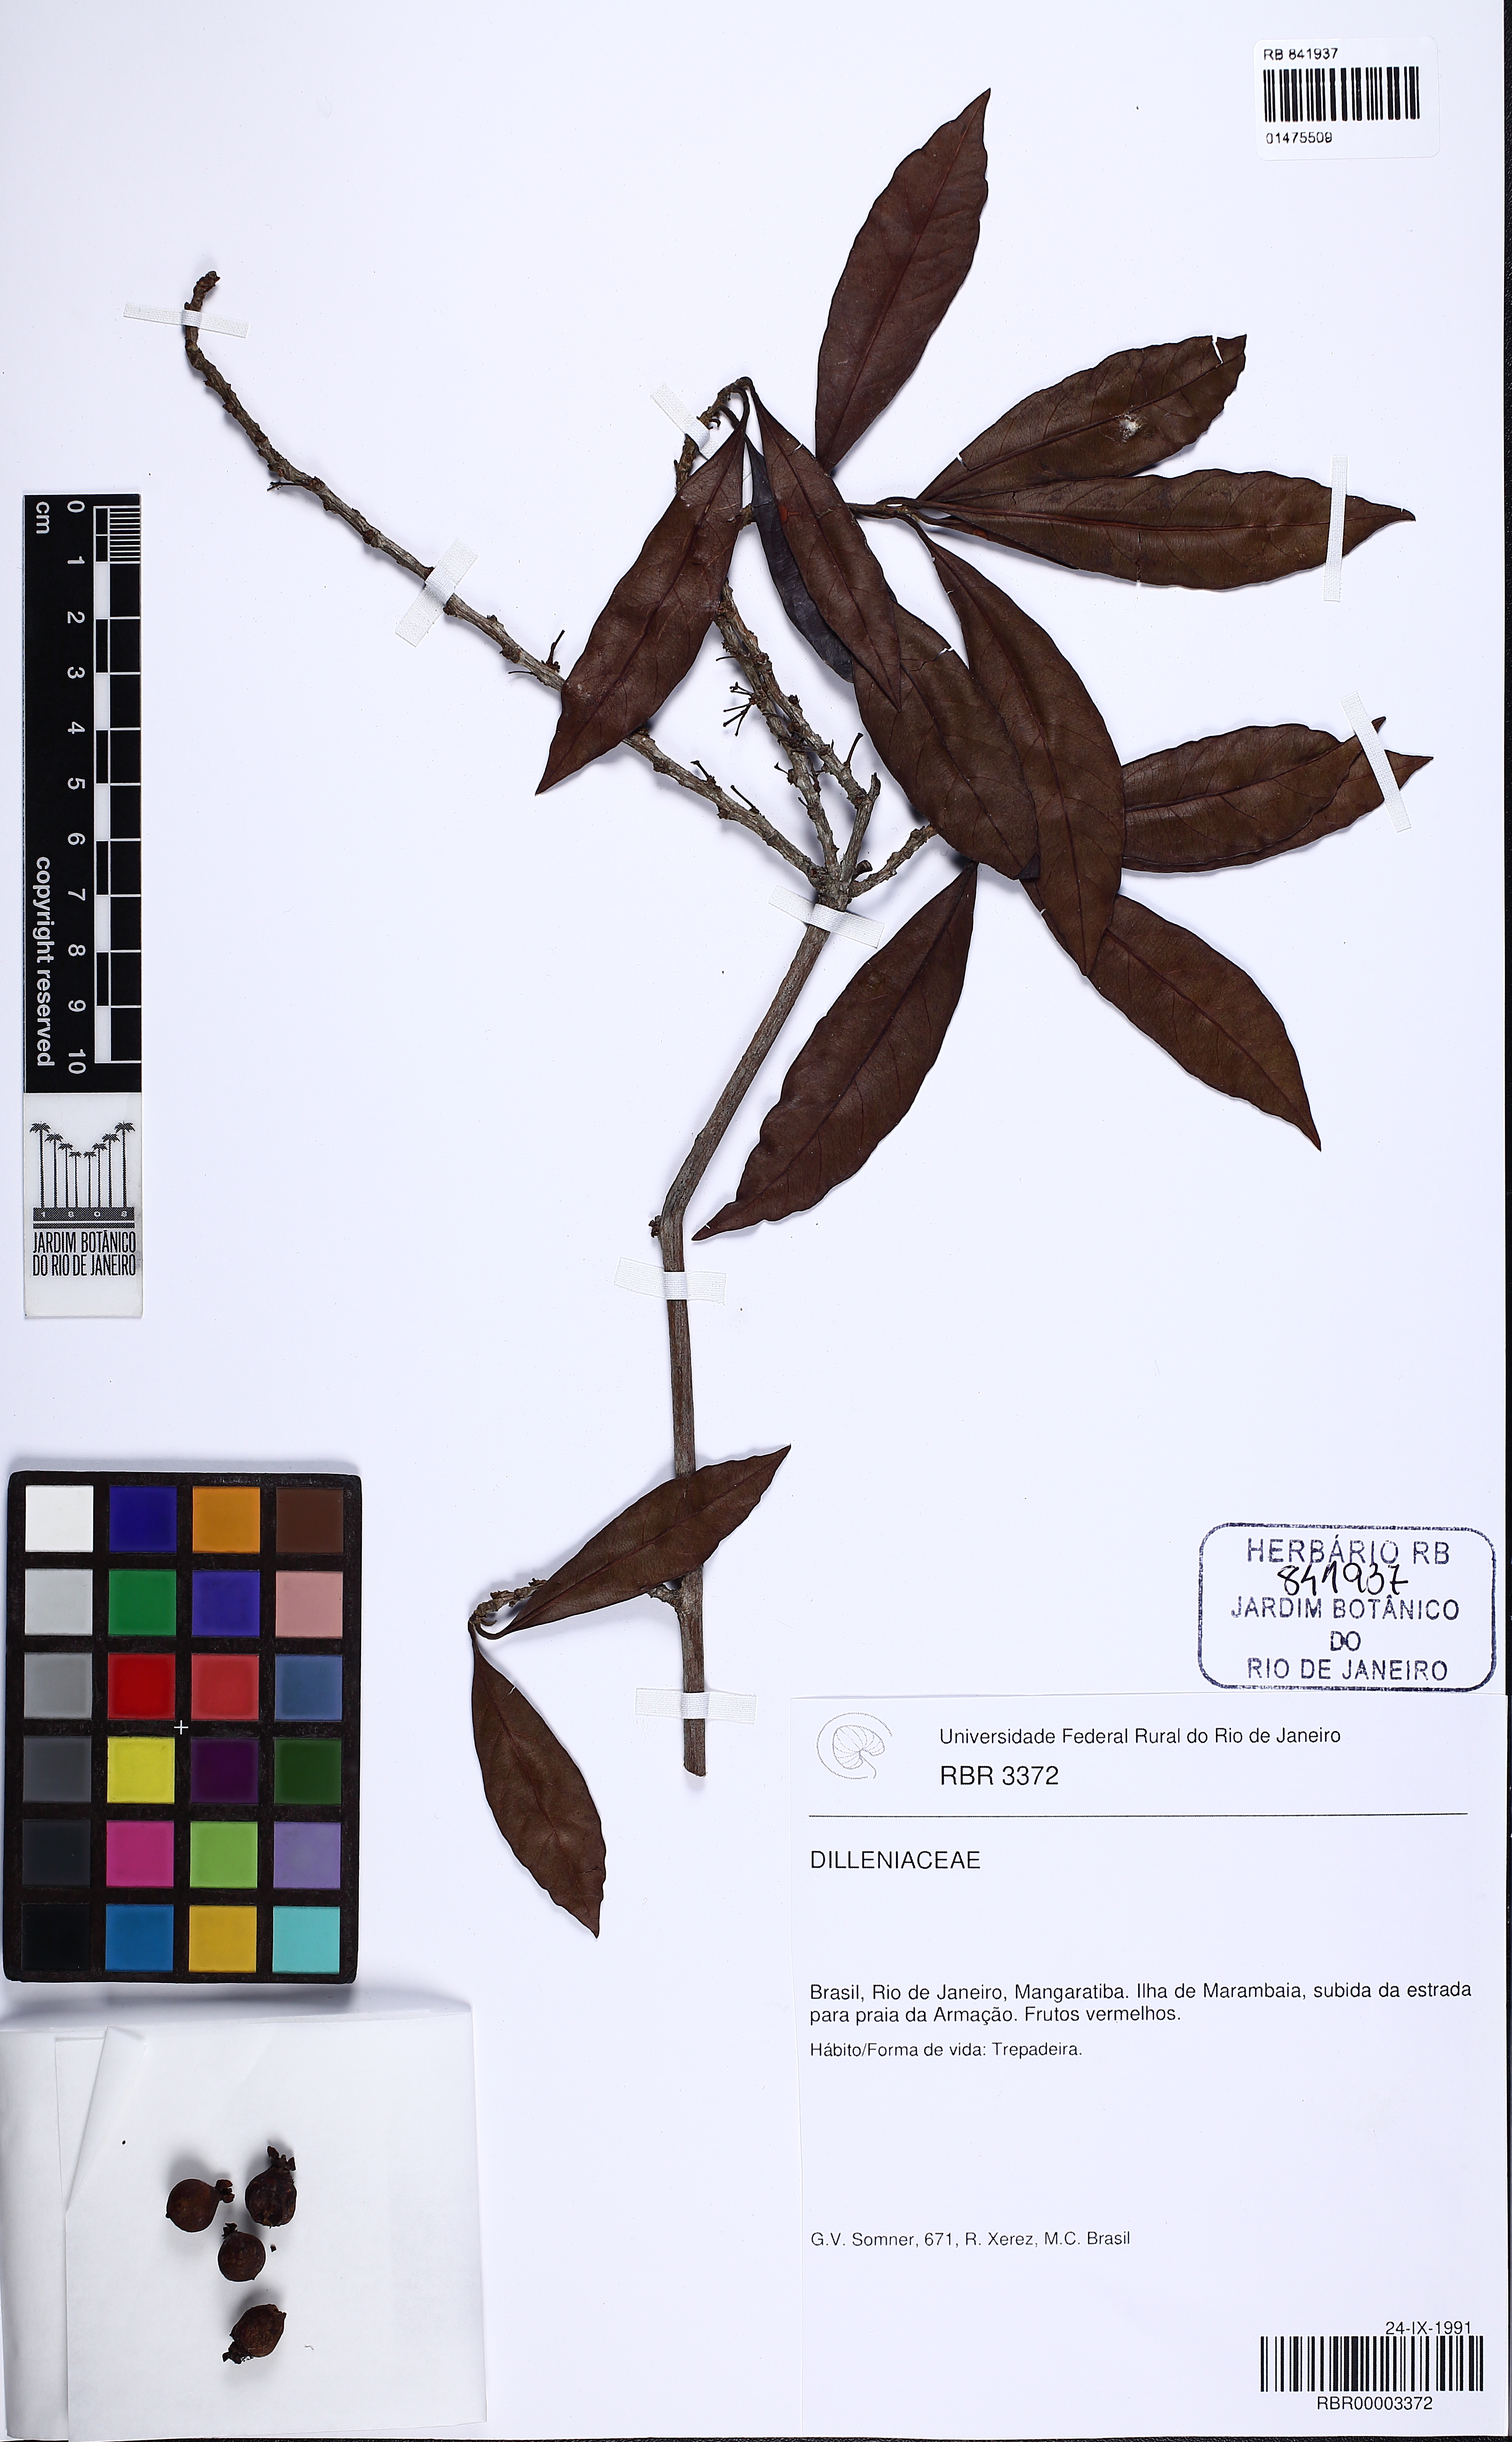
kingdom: Plantae
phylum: Tracheophyta
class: Magnoliopsida
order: Dilleniales
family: Dilleniaceae
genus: Doliocarpus
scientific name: Doliocarpus heterophyllus
